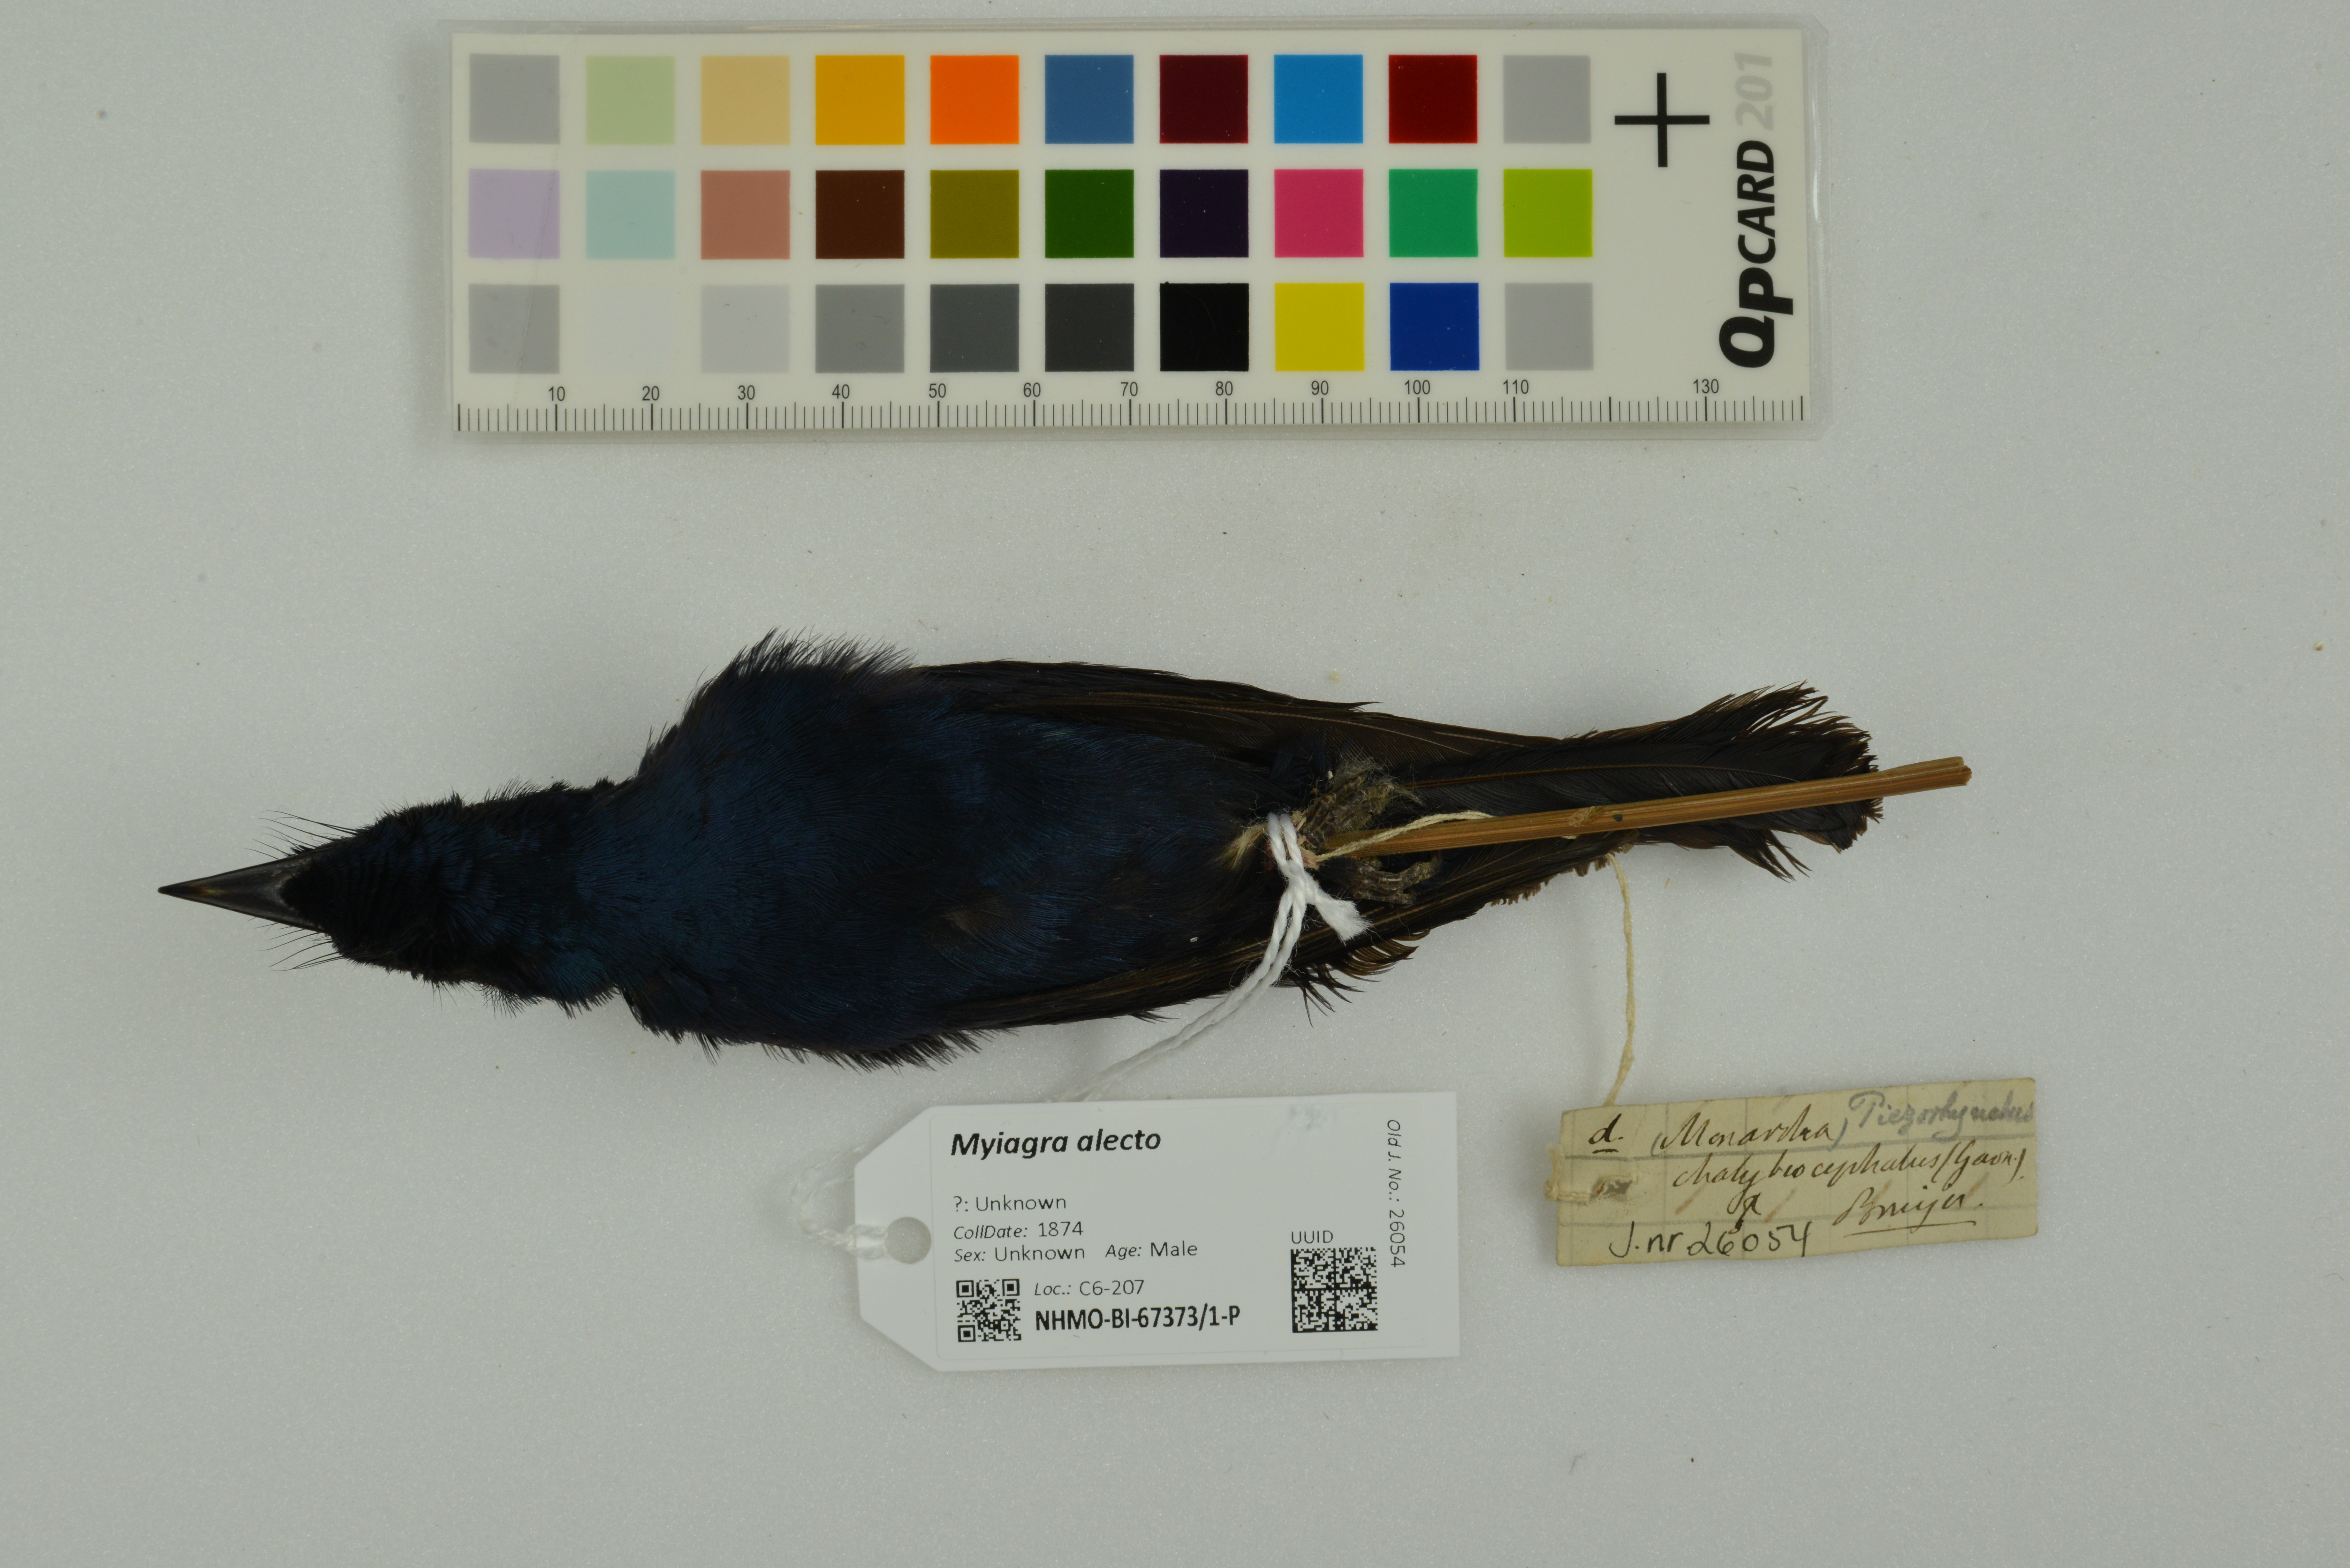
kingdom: Animalia
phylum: Chordata
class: Aves
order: Passeriformes
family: Monarchidae
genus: Myiagra
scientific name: Myiagra alecto
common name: Shining flycatcher
